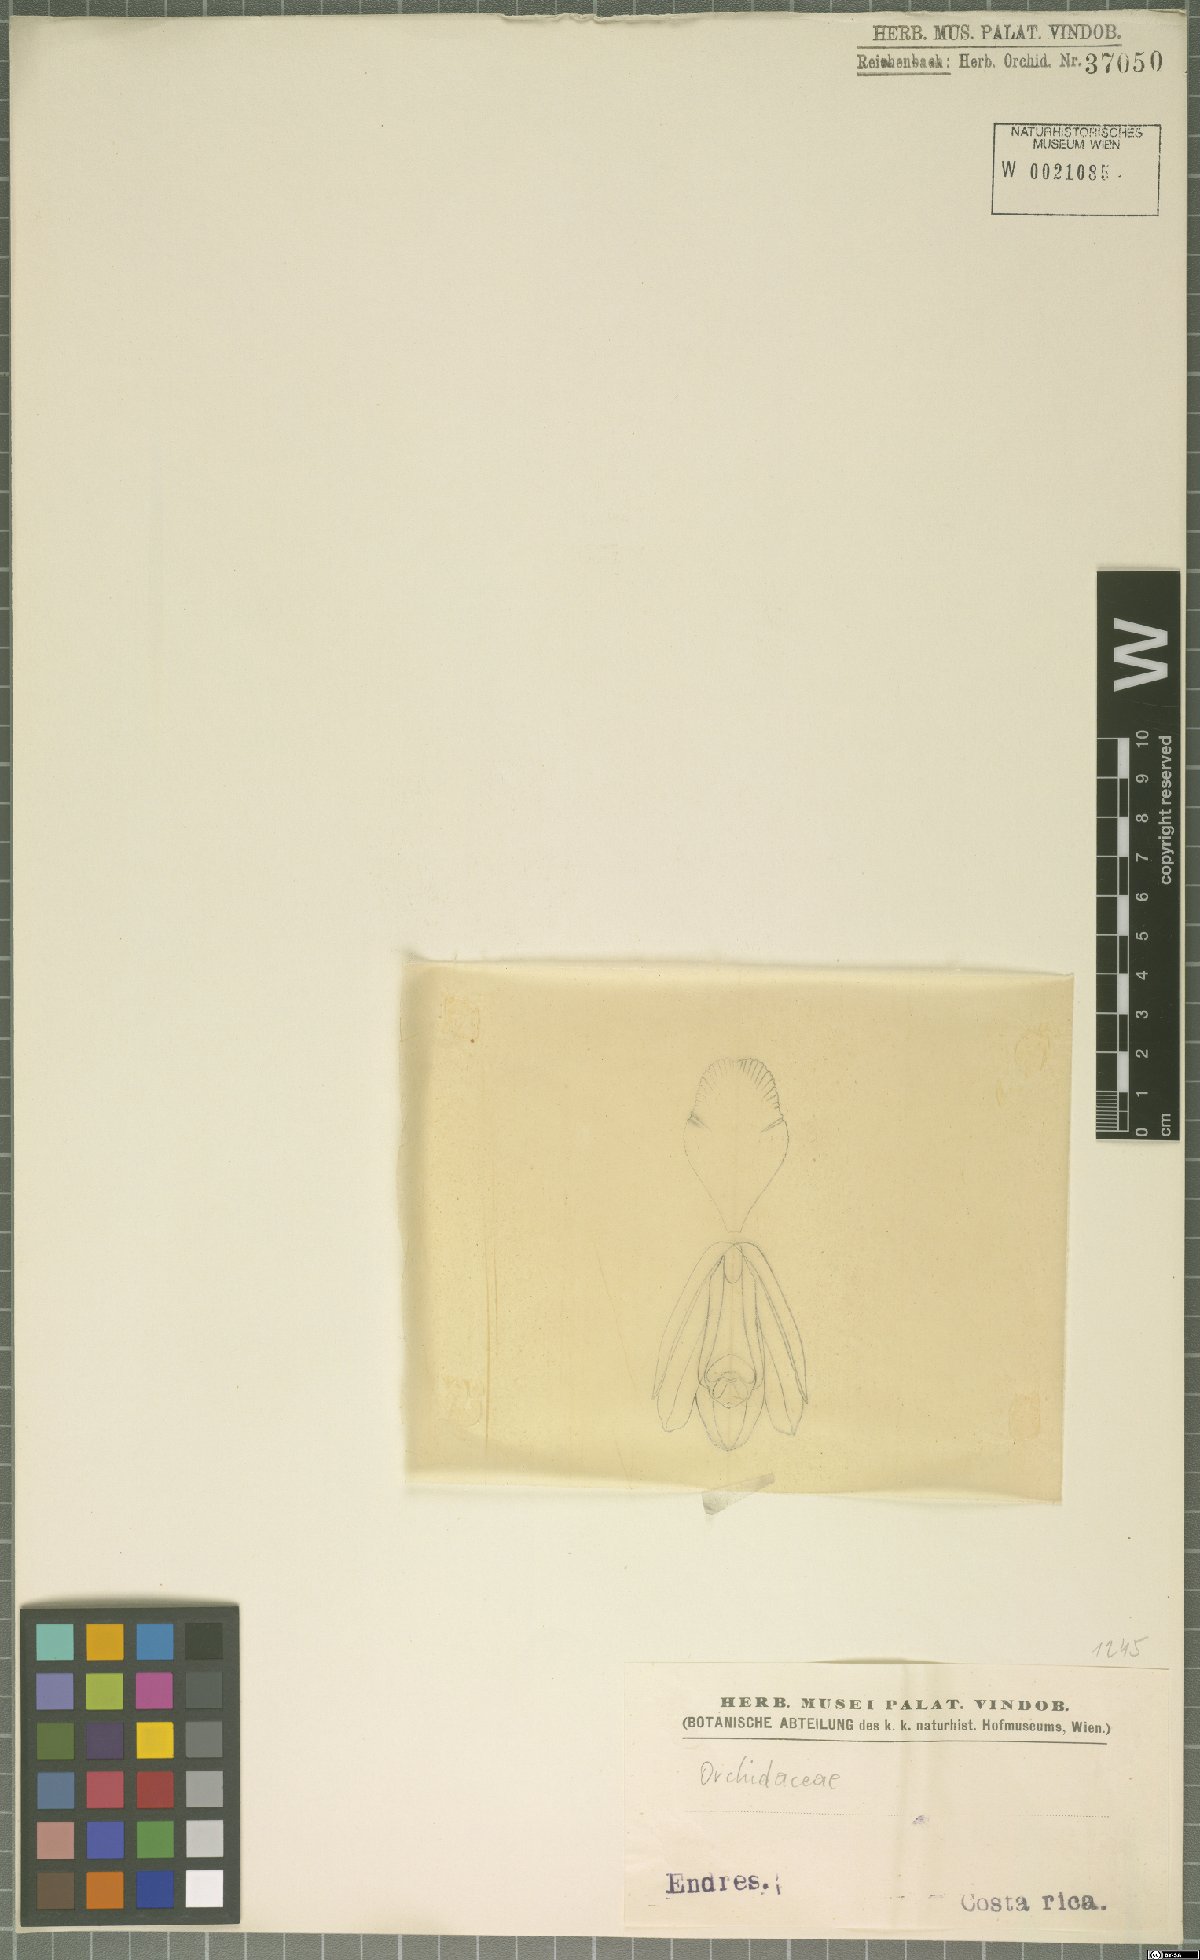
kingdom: Plantae
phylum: Tracheophyta
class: Liliopsida
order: Asparagales
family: Orchidaceae
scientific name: Orchidaceae
